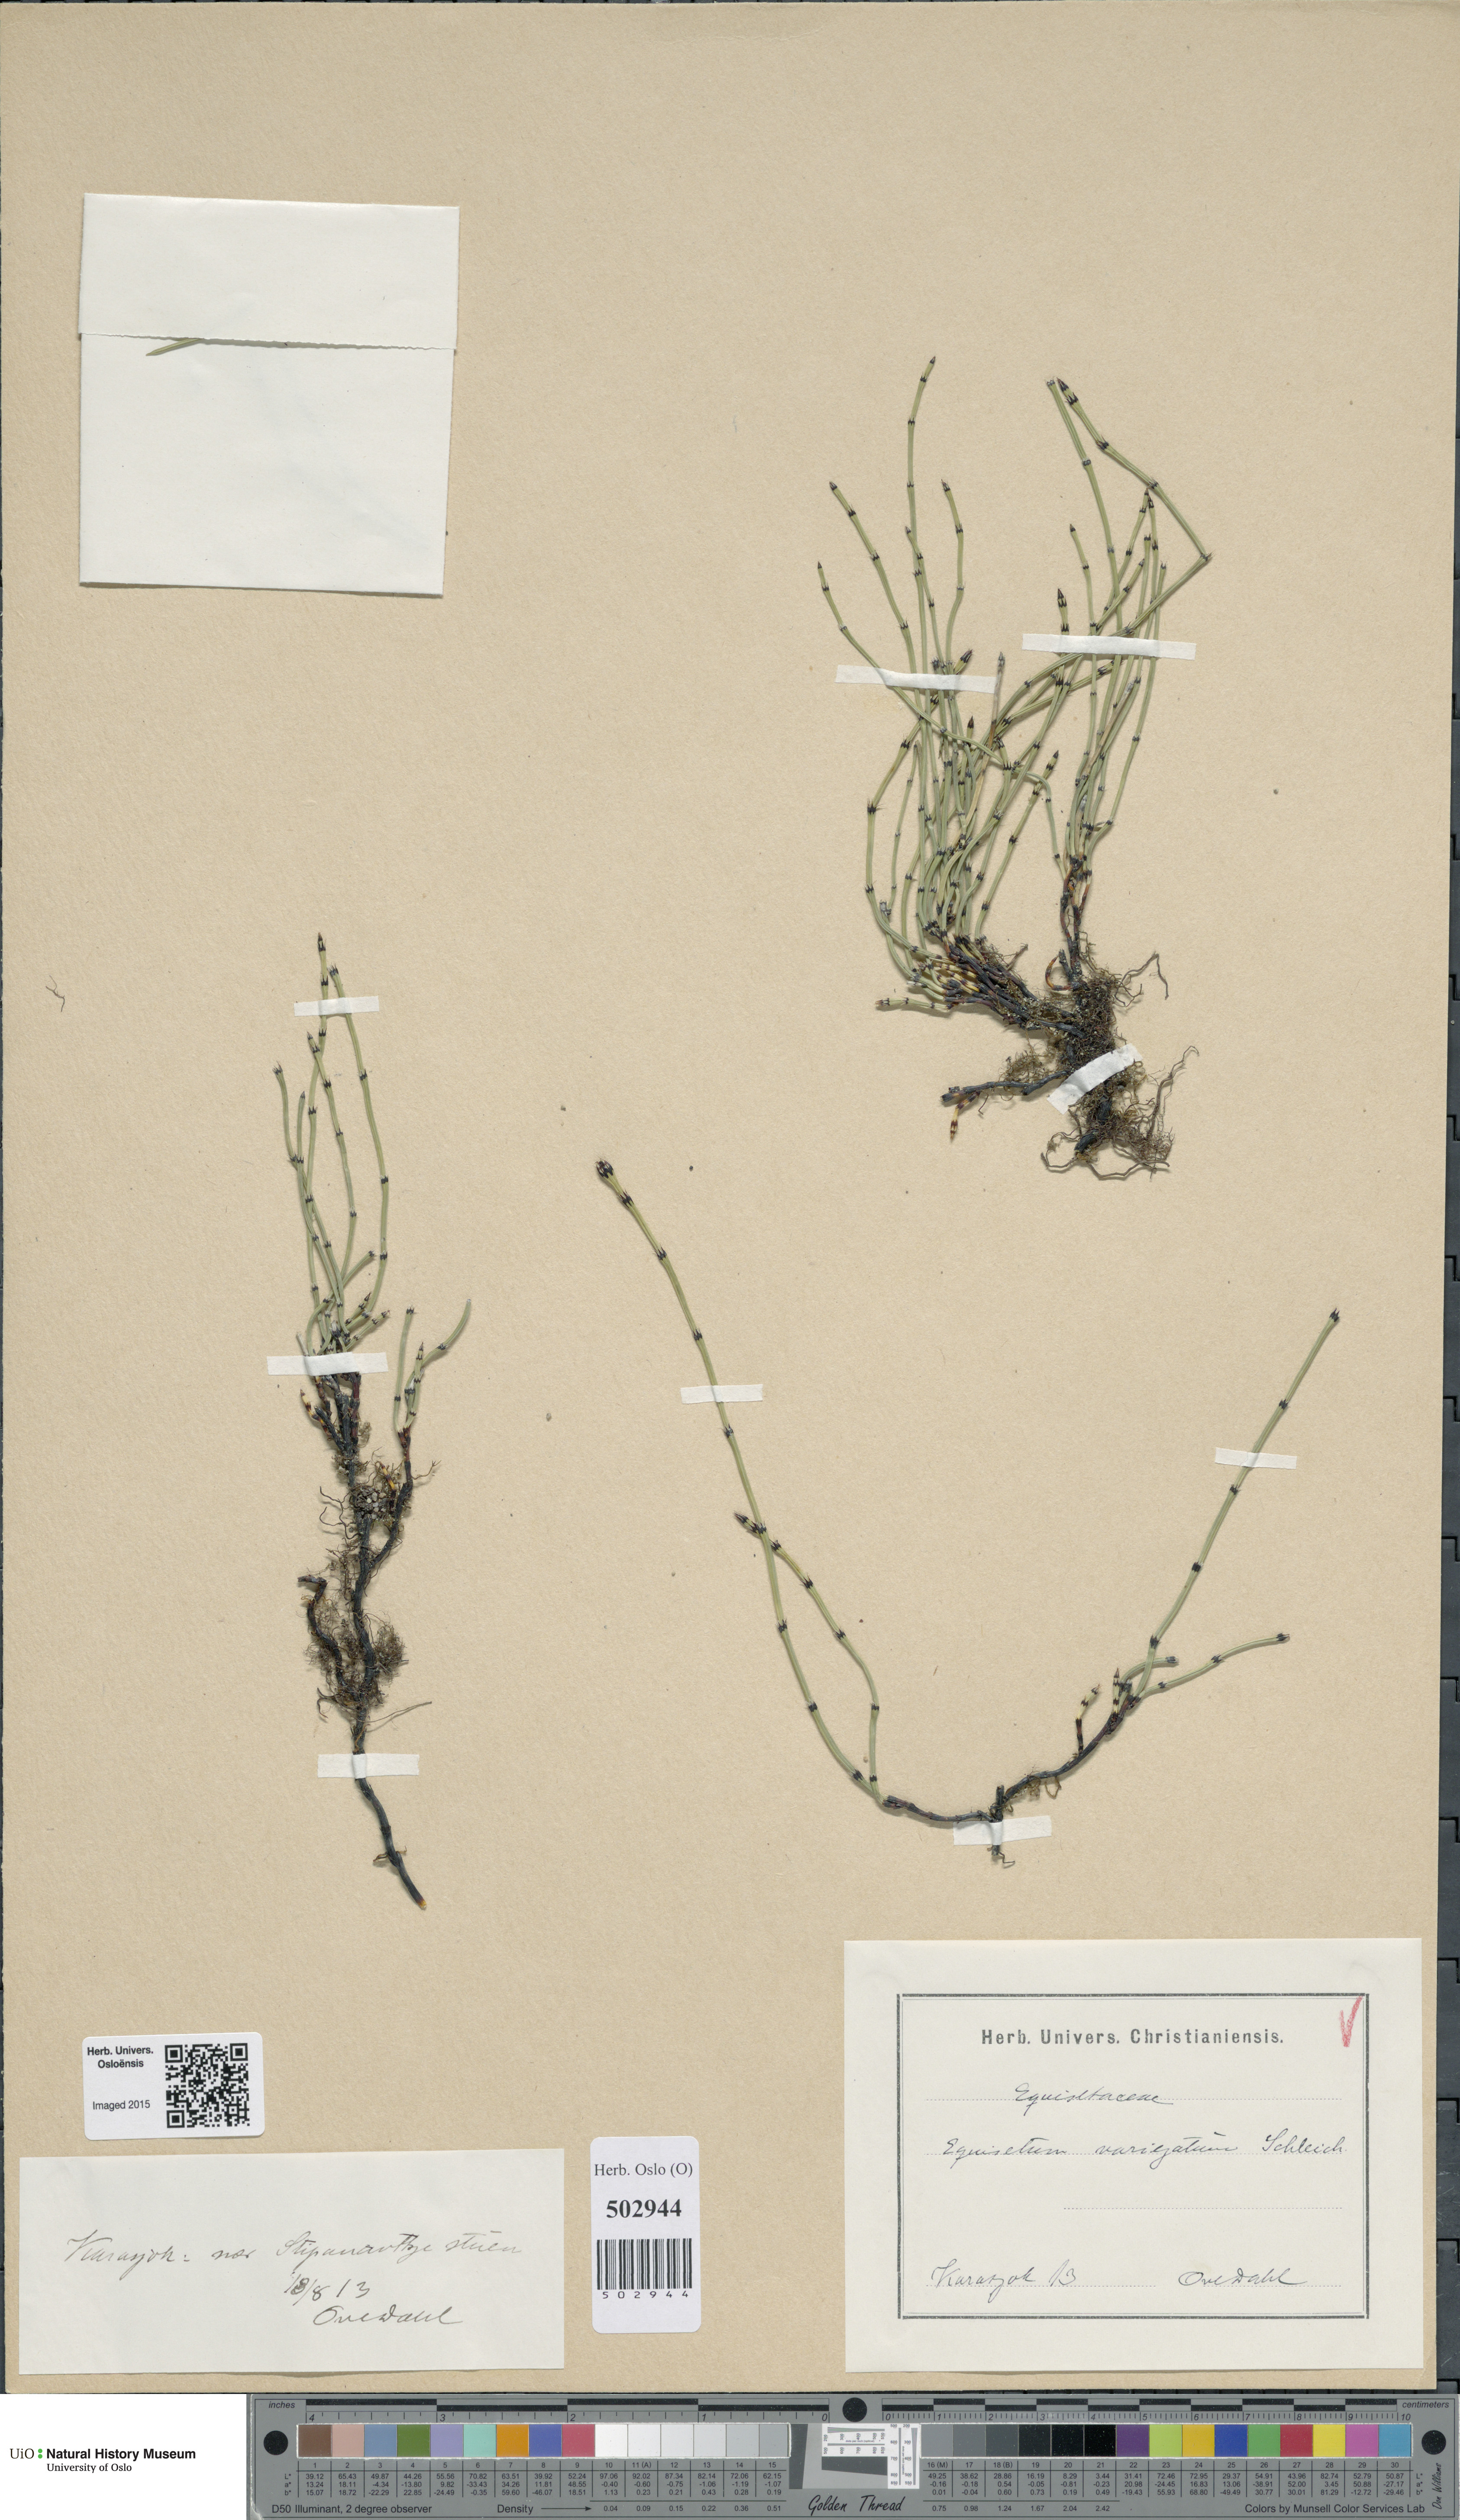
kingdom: Plantae
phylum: Tracheophyta
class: Polypodiopsida
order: Equisetales
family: Equisetaceae
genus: Equisetum
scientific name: Equisetum variegatum
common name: Variegated horsetail
